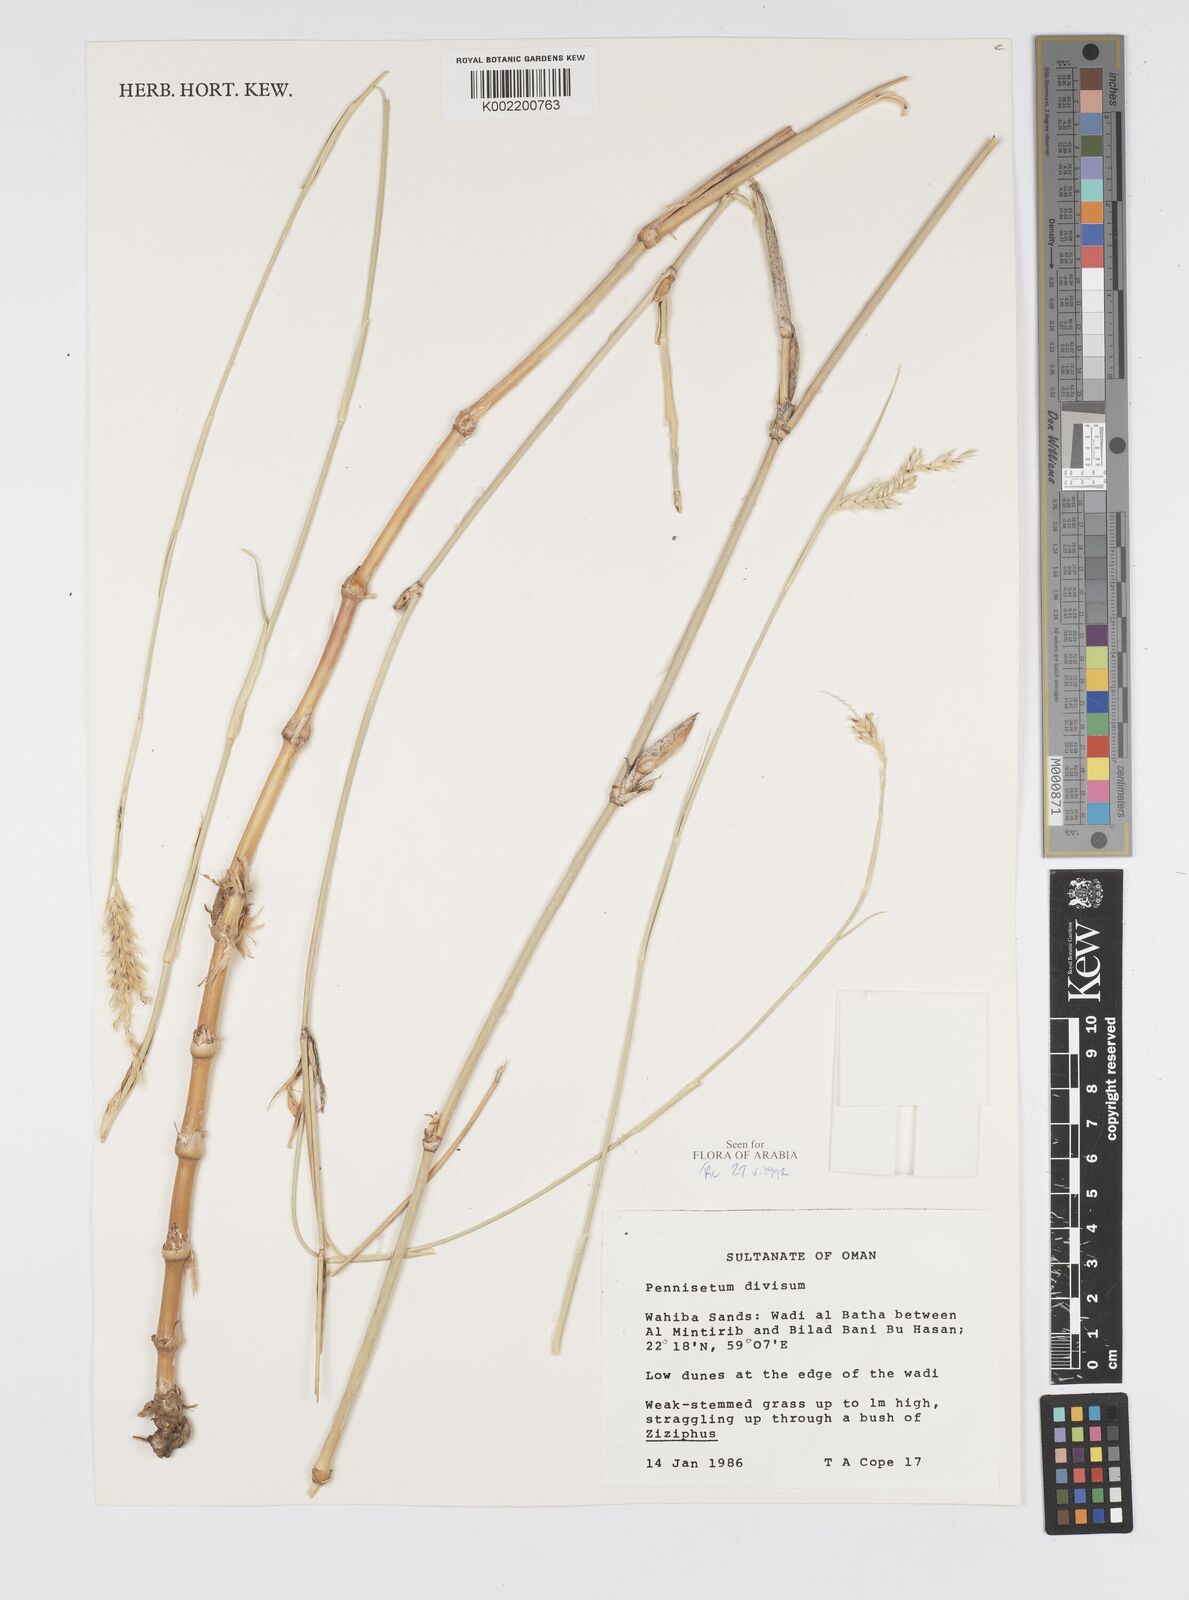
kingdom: Plantae
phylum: Tracheophyta
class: Liliopsida
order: Poales
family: Poaceae
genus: Cenchrus
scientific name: Cenchrus divisus
